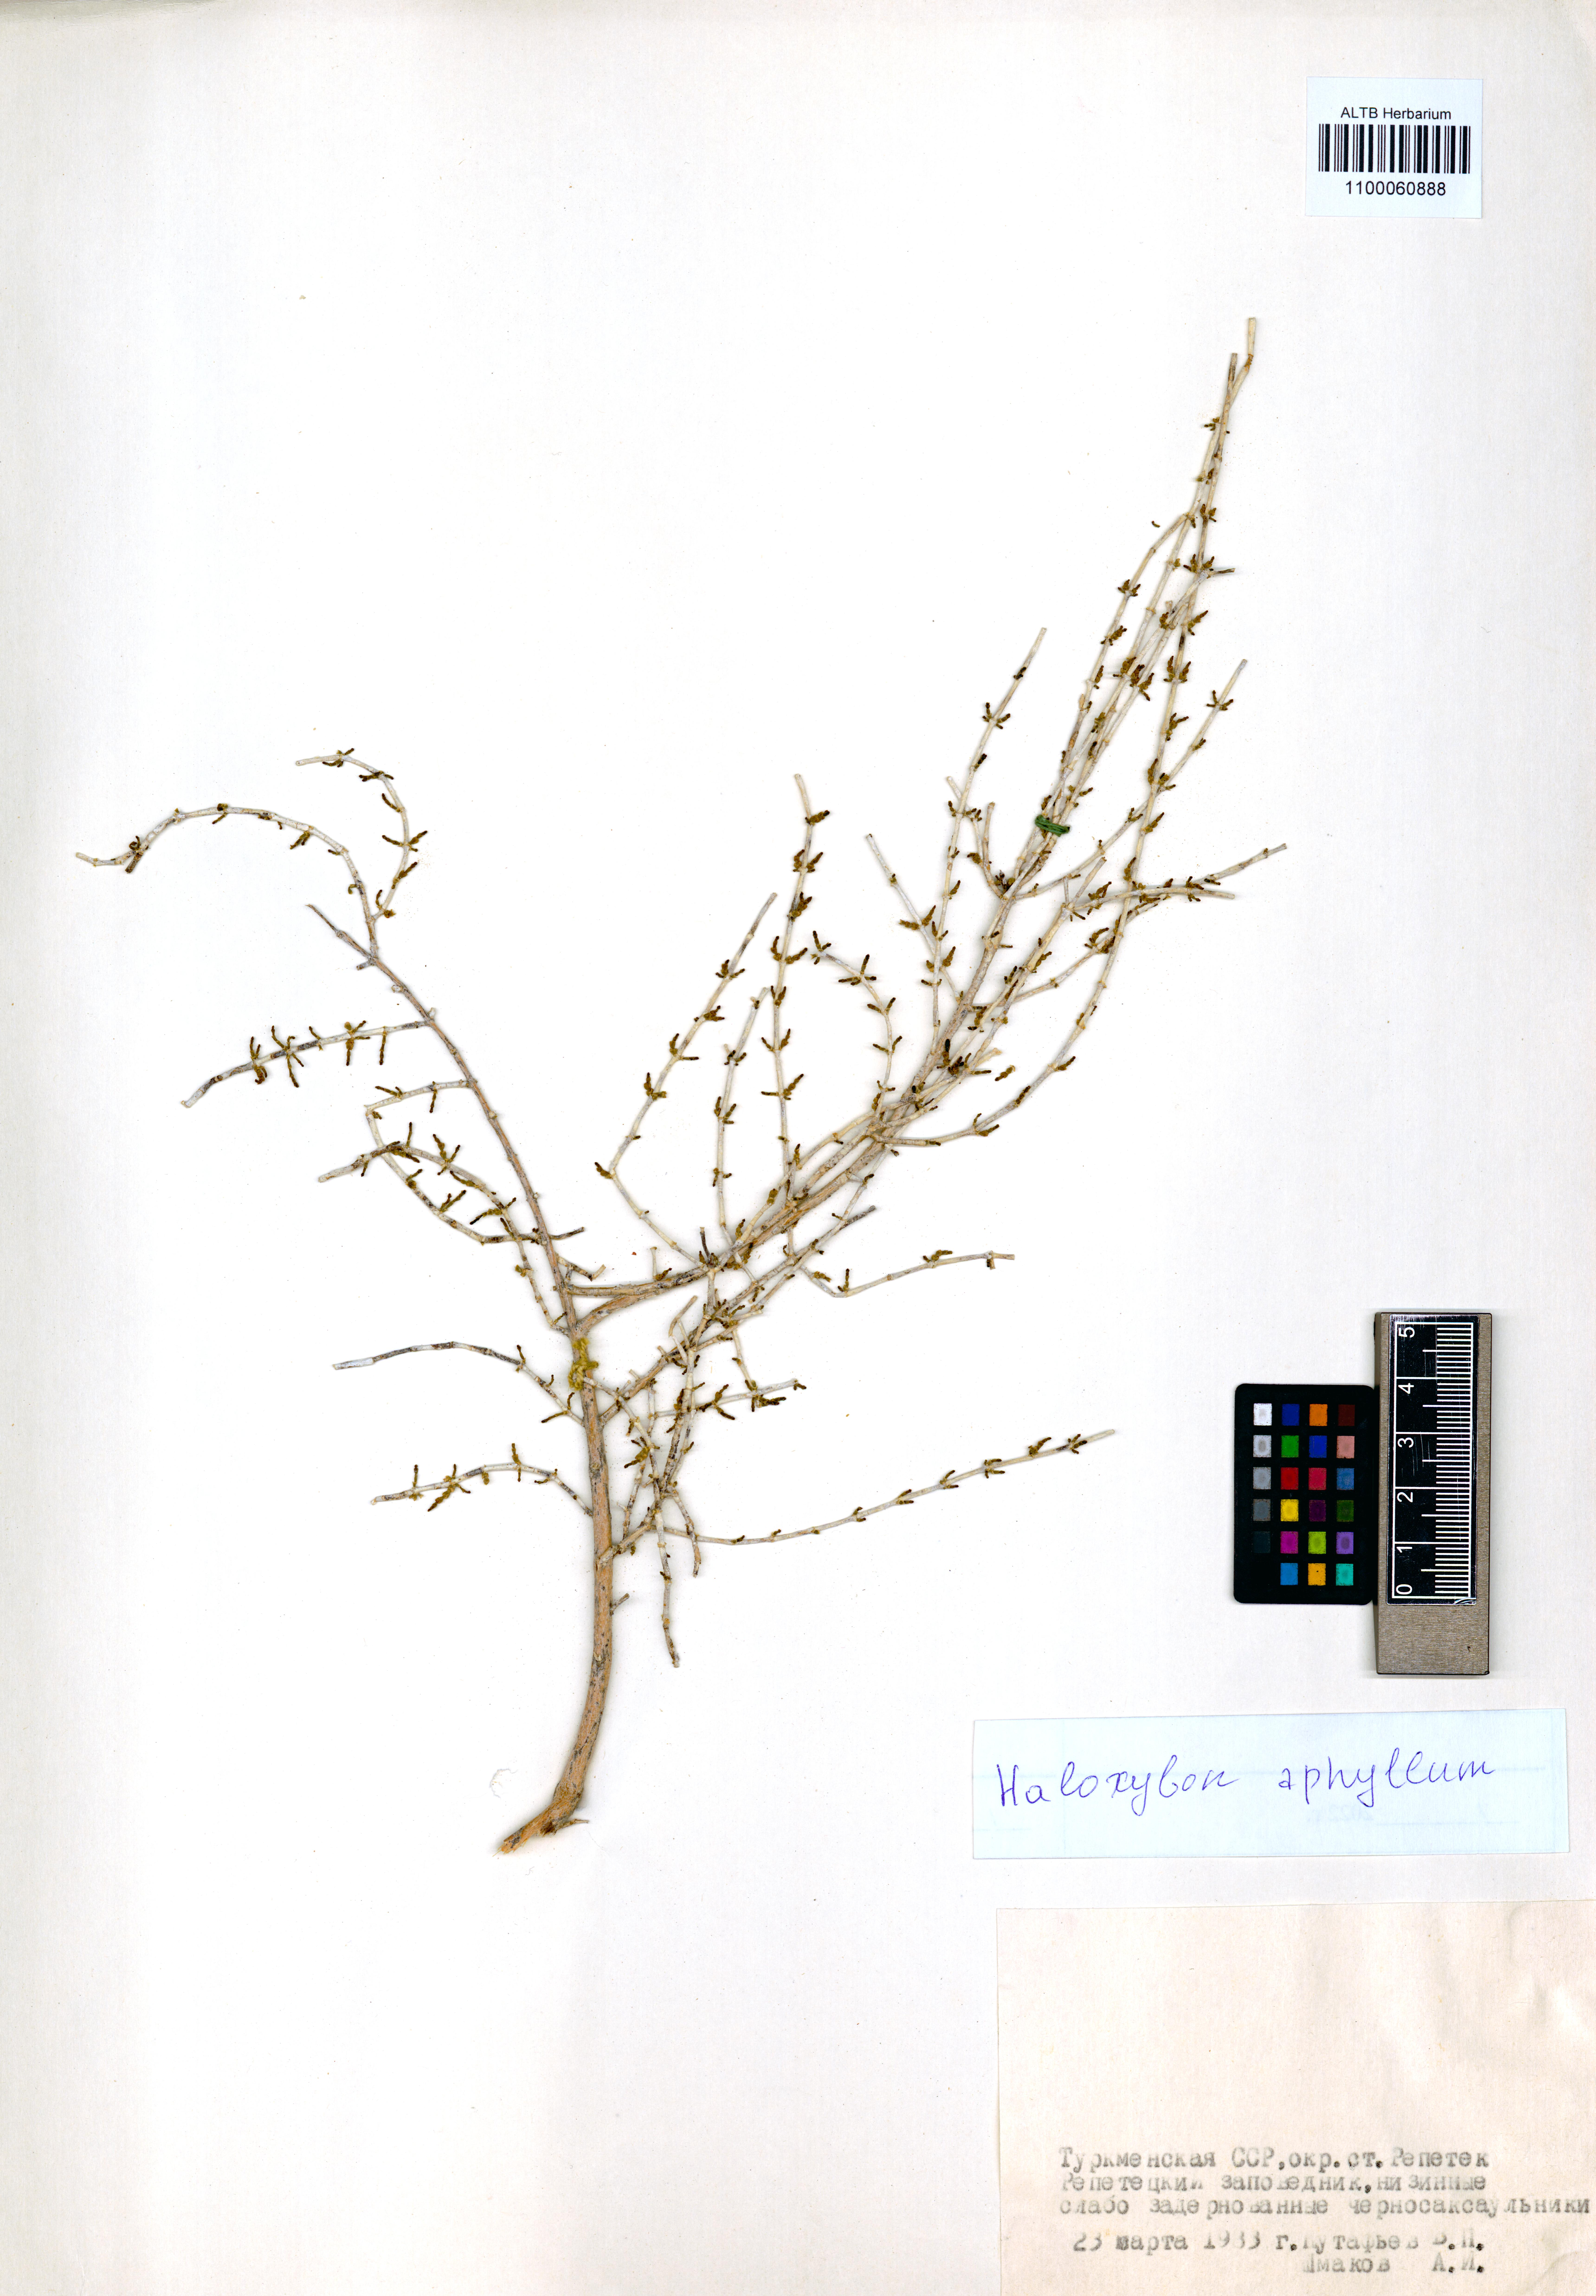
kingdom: Plantae
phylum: Tracheophyta
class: Magnoliopsida
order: Caryophyllales
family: Amaranthaceae
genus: Haloxylon
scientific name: Haloxylon ammodendron
